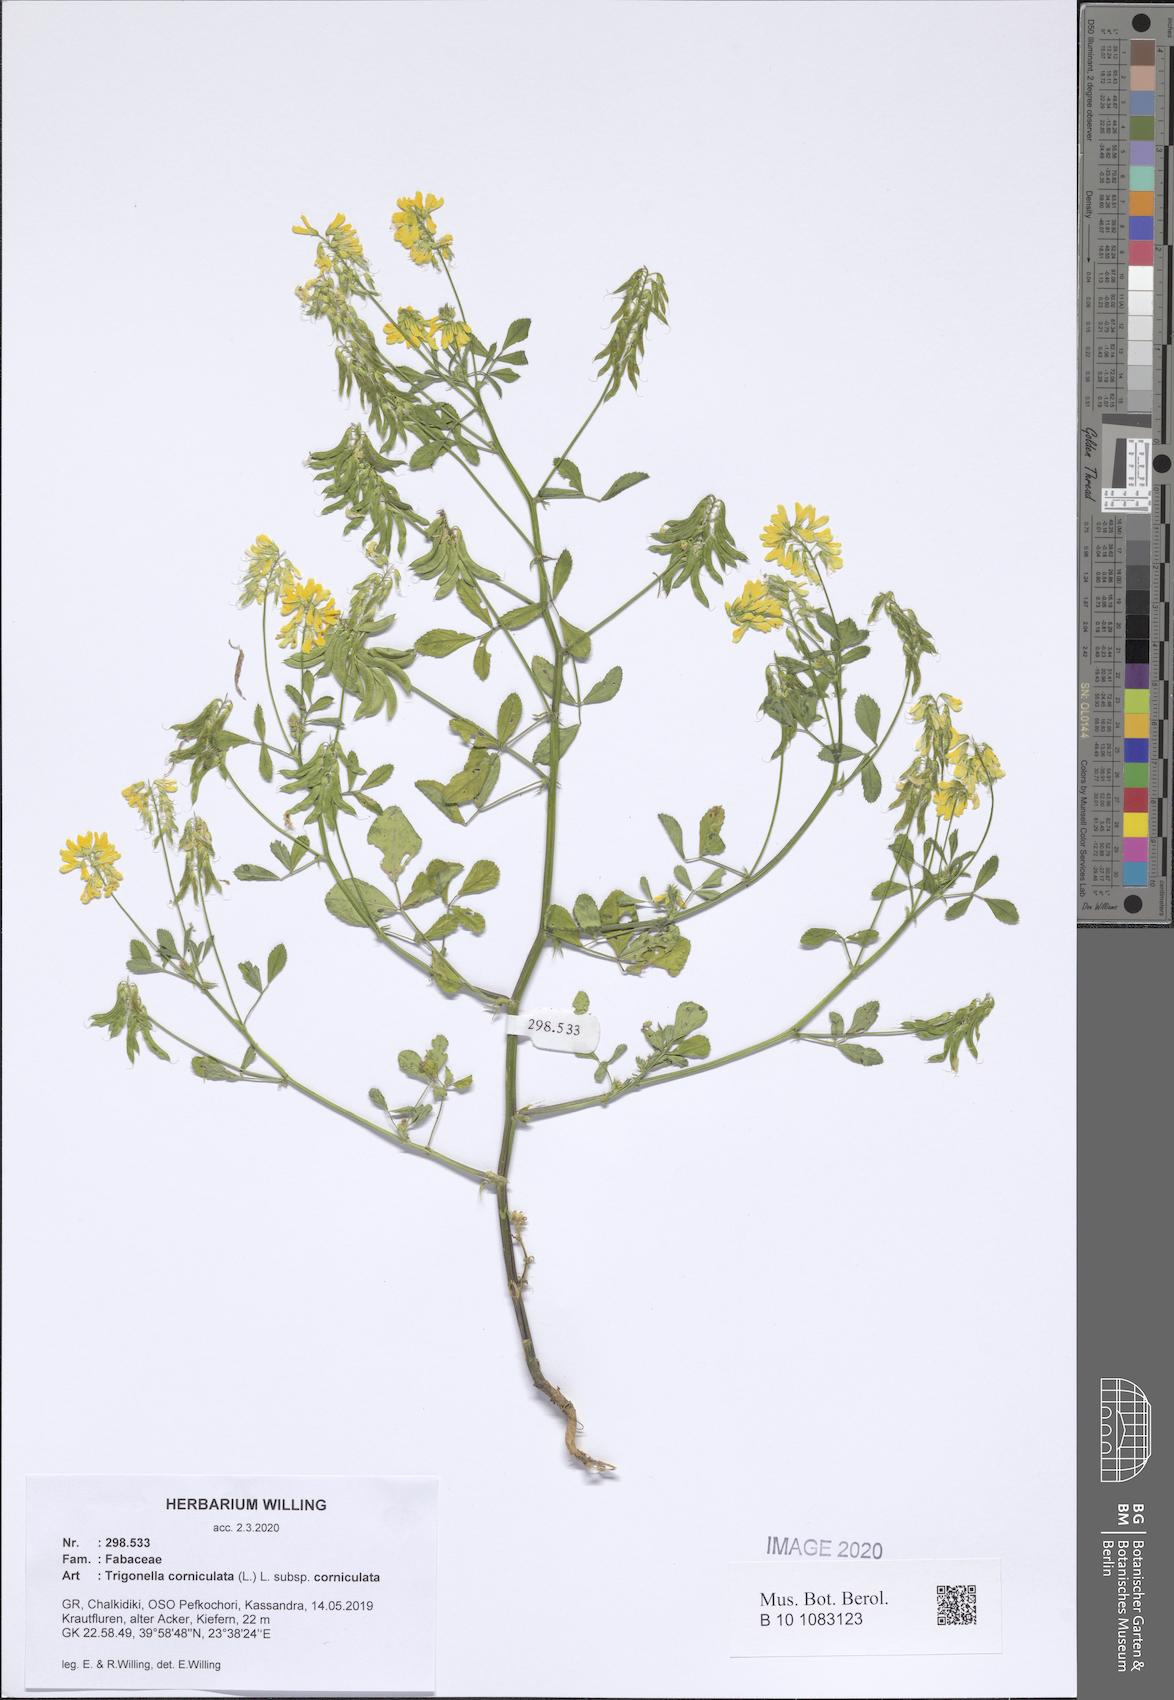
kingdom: Plantae
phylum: Tracheophyta
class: Magnoliopsida
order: Fabales
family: Fabaceae
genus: Trigonella
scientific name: Trigonella corniculata
